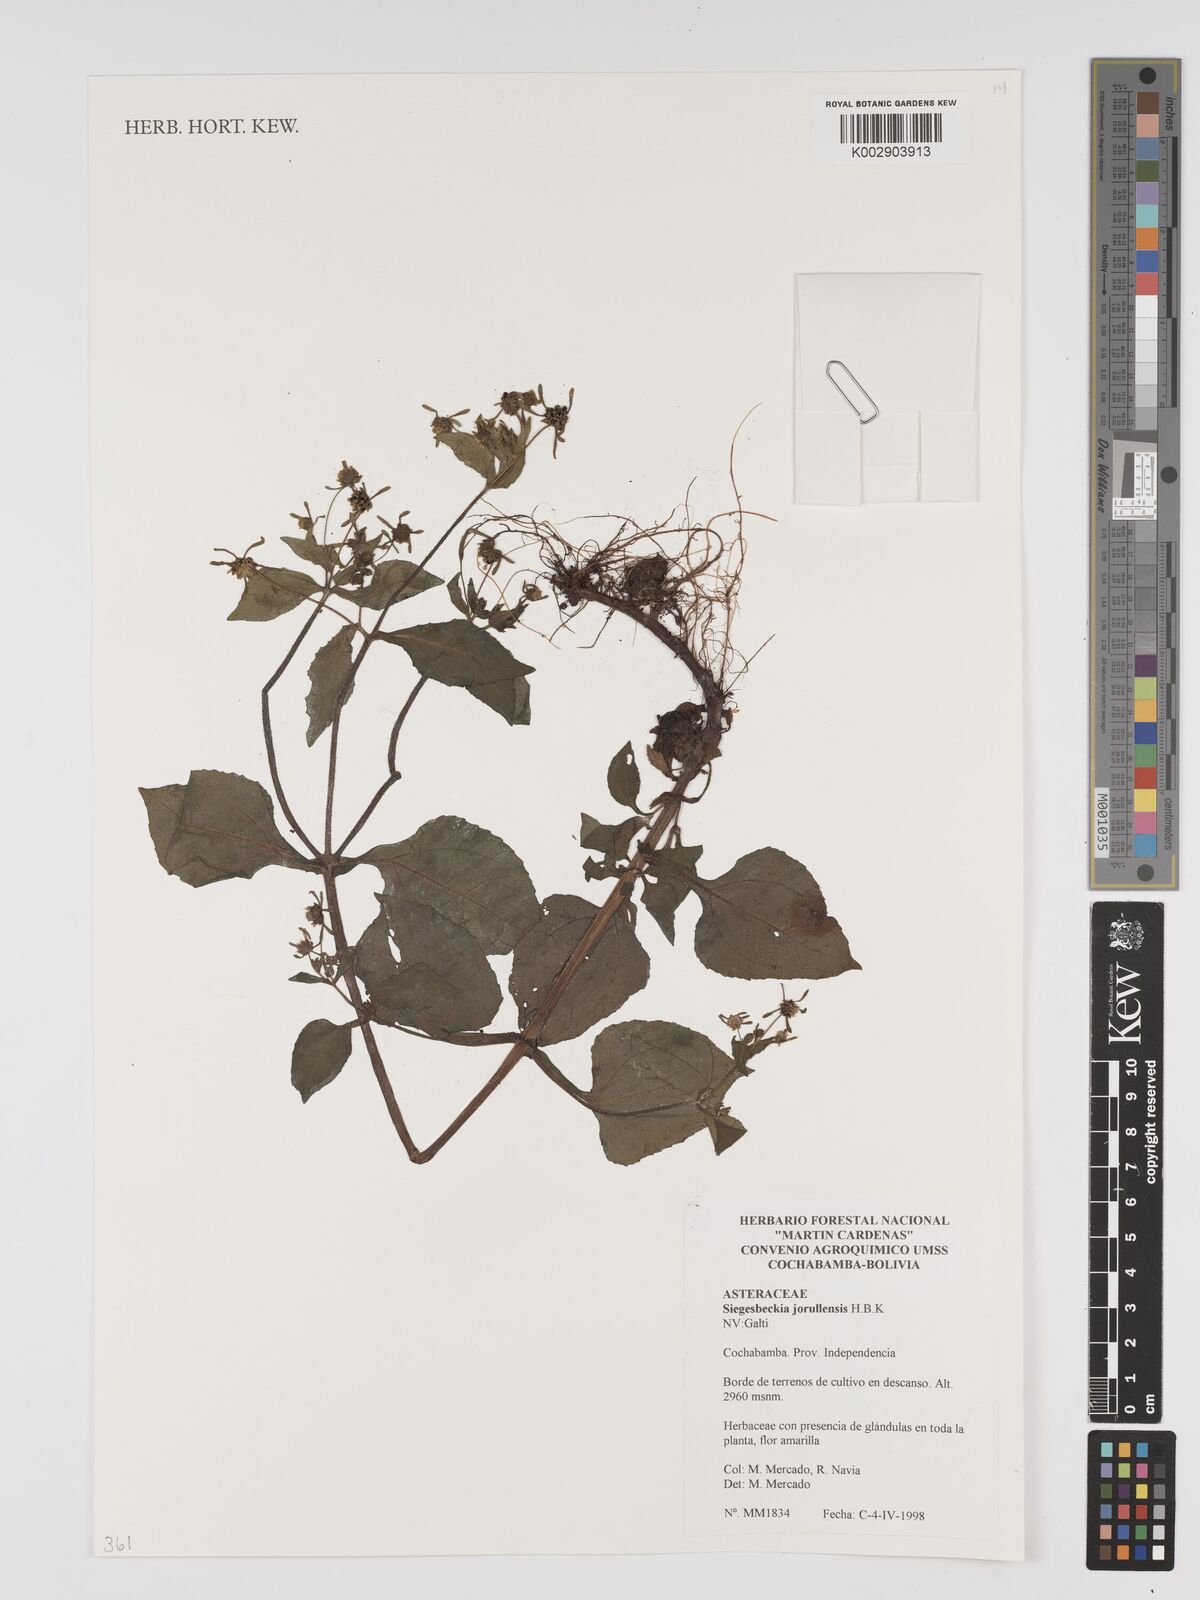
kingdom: Plantae
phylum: Tracheophyta
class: Magnoliopsida
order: Asterales
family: Asteraceae
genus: Sigesbeckia
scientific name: Sigesbeckia jorullensis
